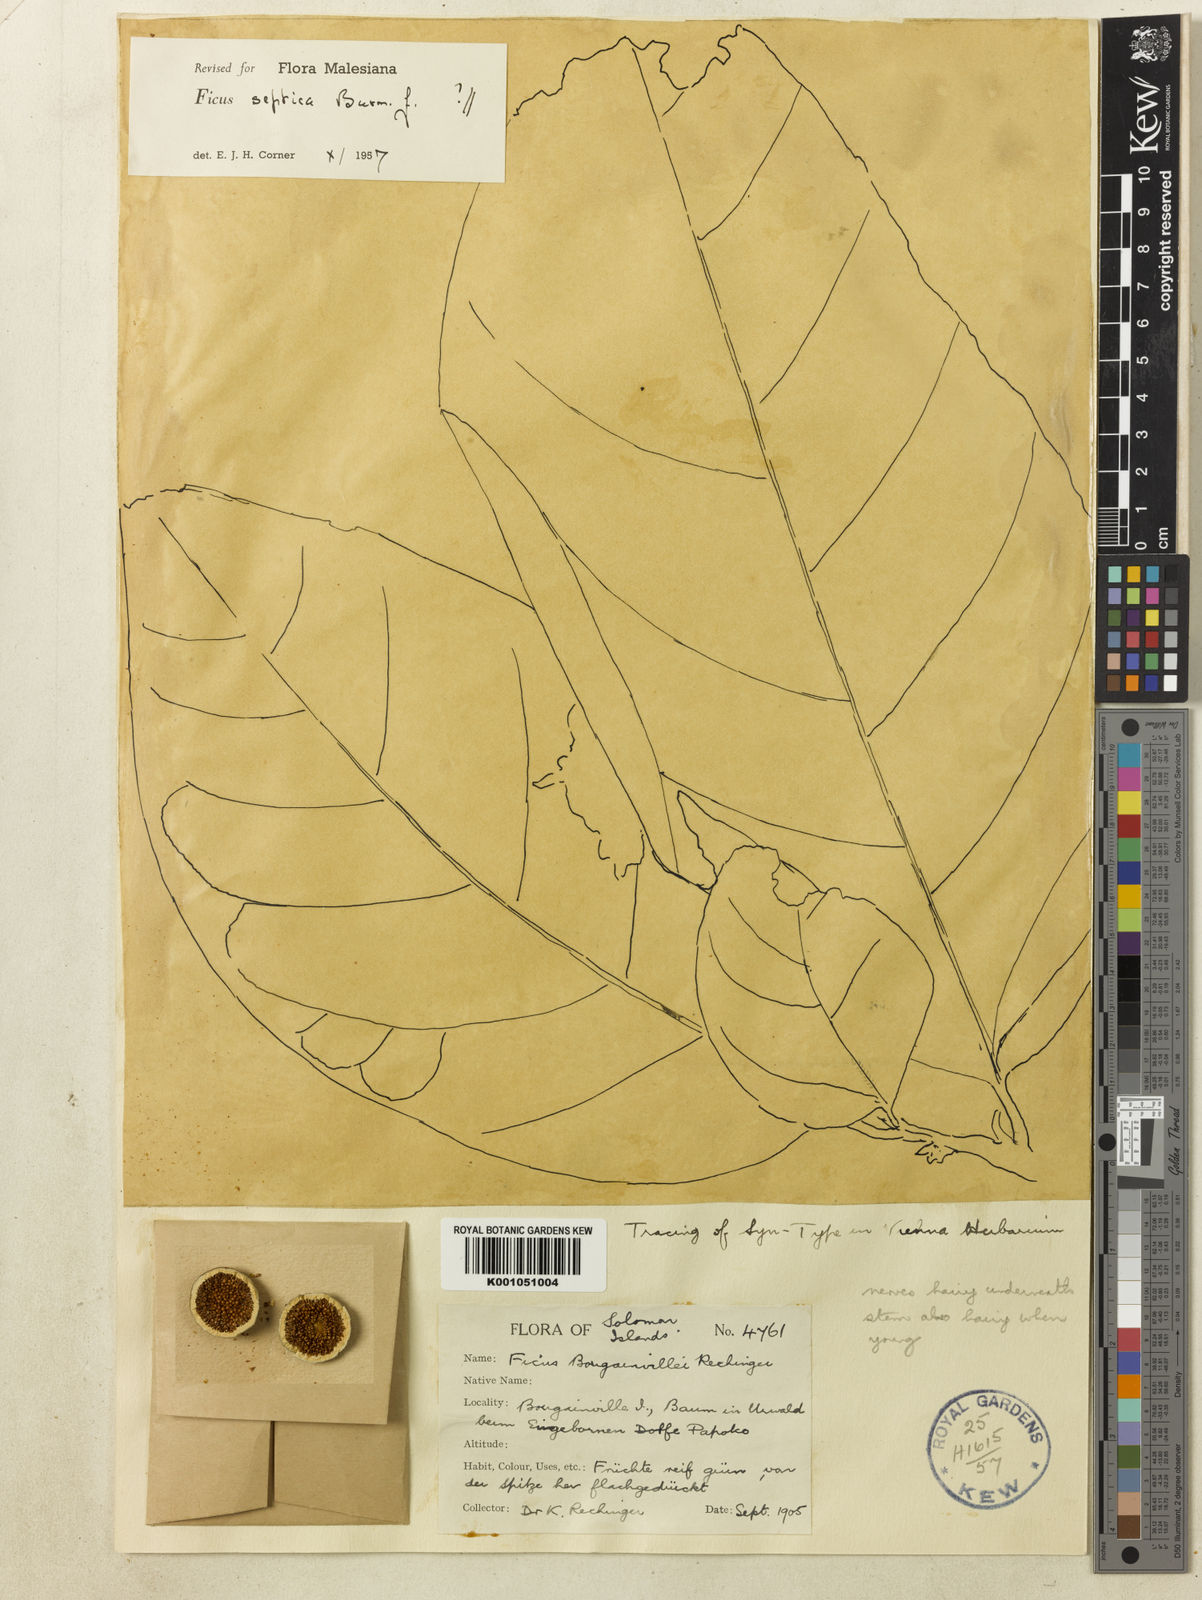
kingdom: Plantae
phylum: Tracheophyta
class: Magnoliopsida
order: Rosales
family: Moraceae
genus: Ficus
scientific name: Ficus bougainvillei
